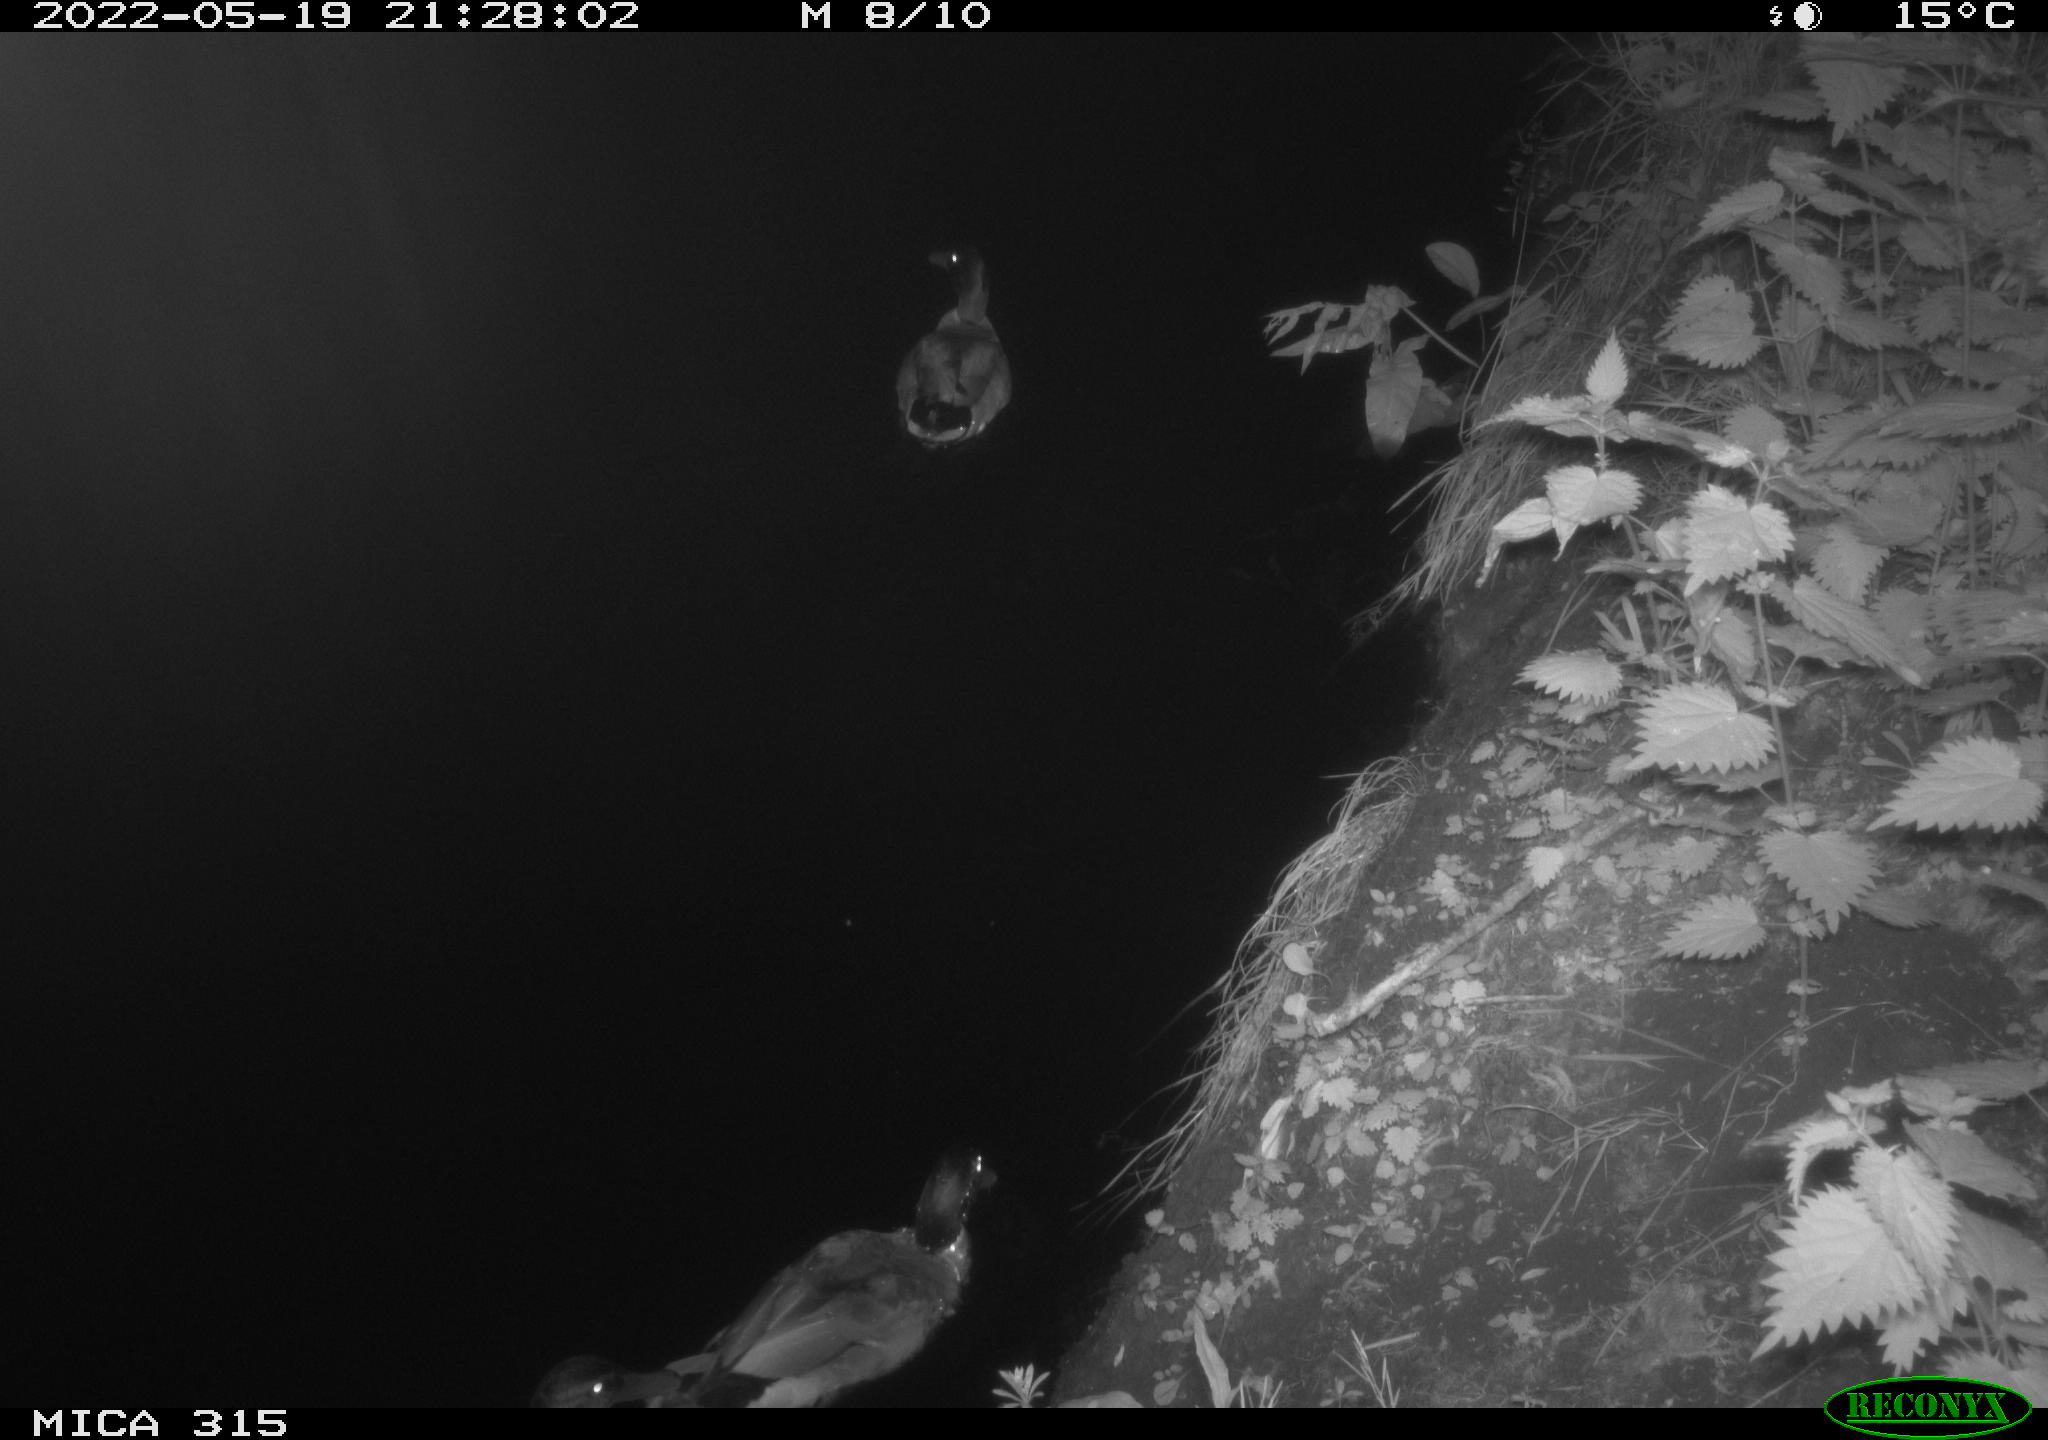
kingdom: Animalia
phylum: Chordata
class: Aves
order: Gruiformes
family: Rallidae
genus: Fulica
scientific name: Fulica atra
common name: Eurasian coot
